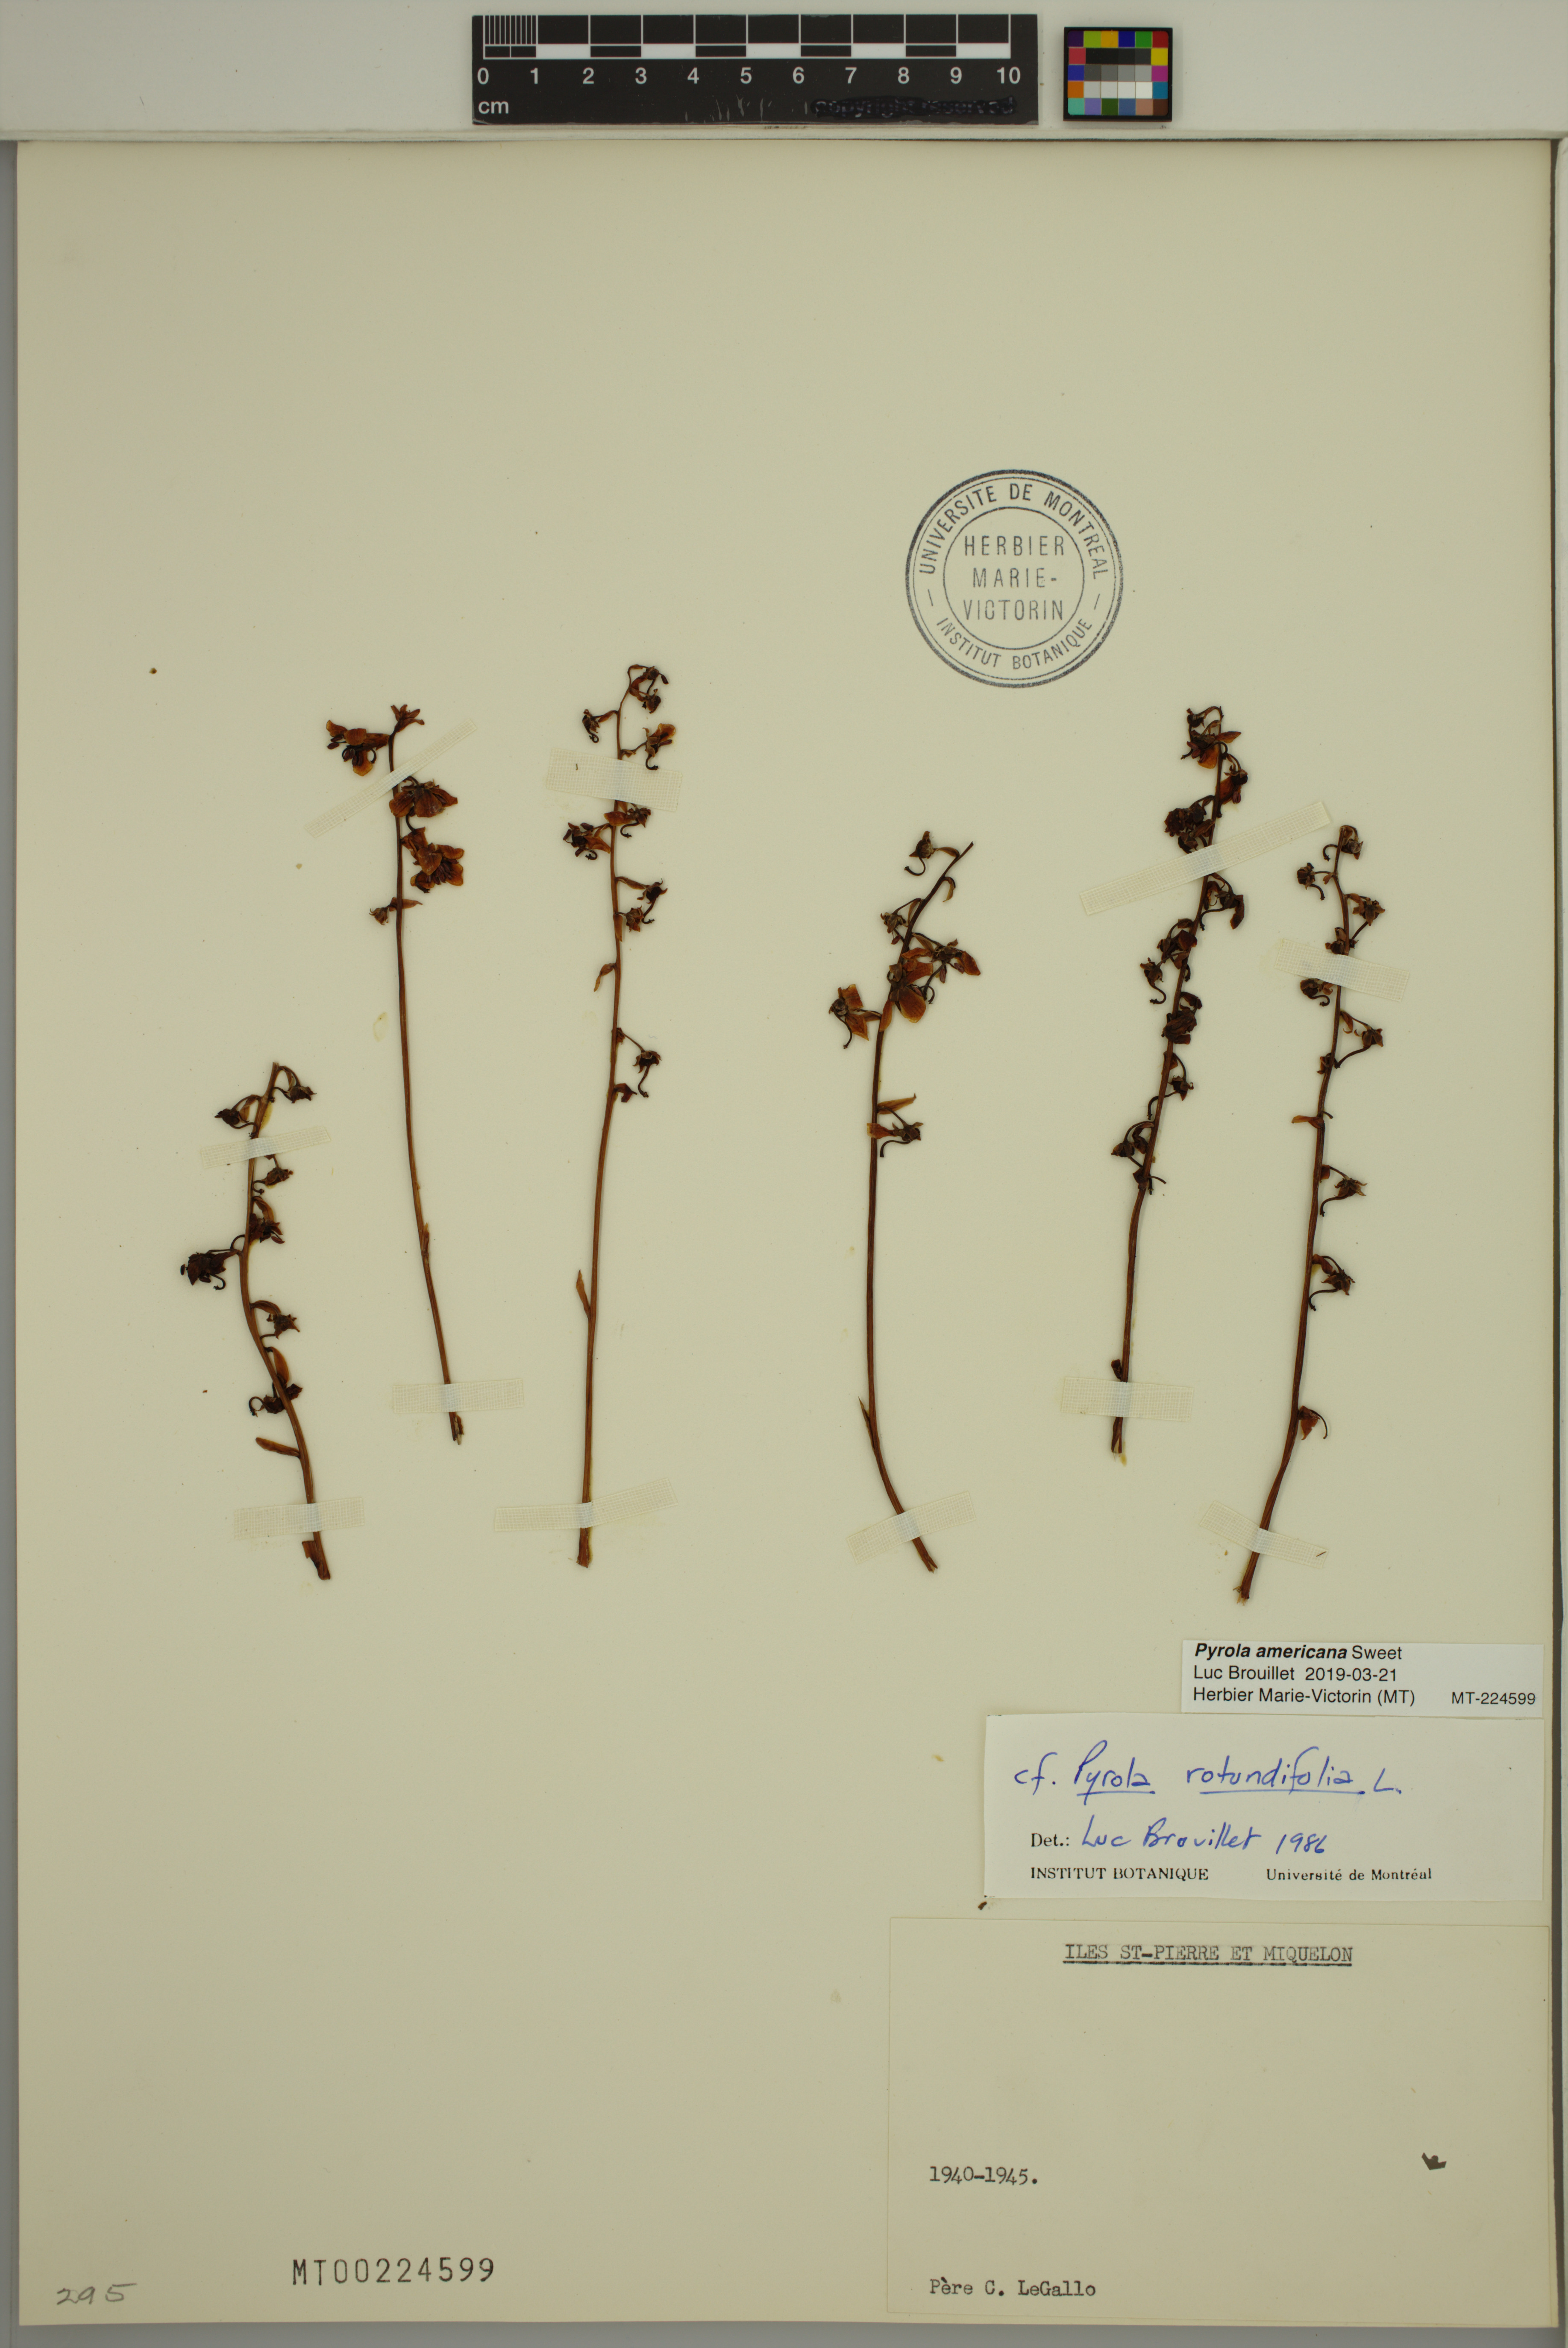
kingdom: Plantae
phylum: Tracheophyta
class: Magnoliopsida
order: Ericales
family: Ericaceae
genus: Pyrola
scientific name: Pyrola americana
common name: American wintergreen
